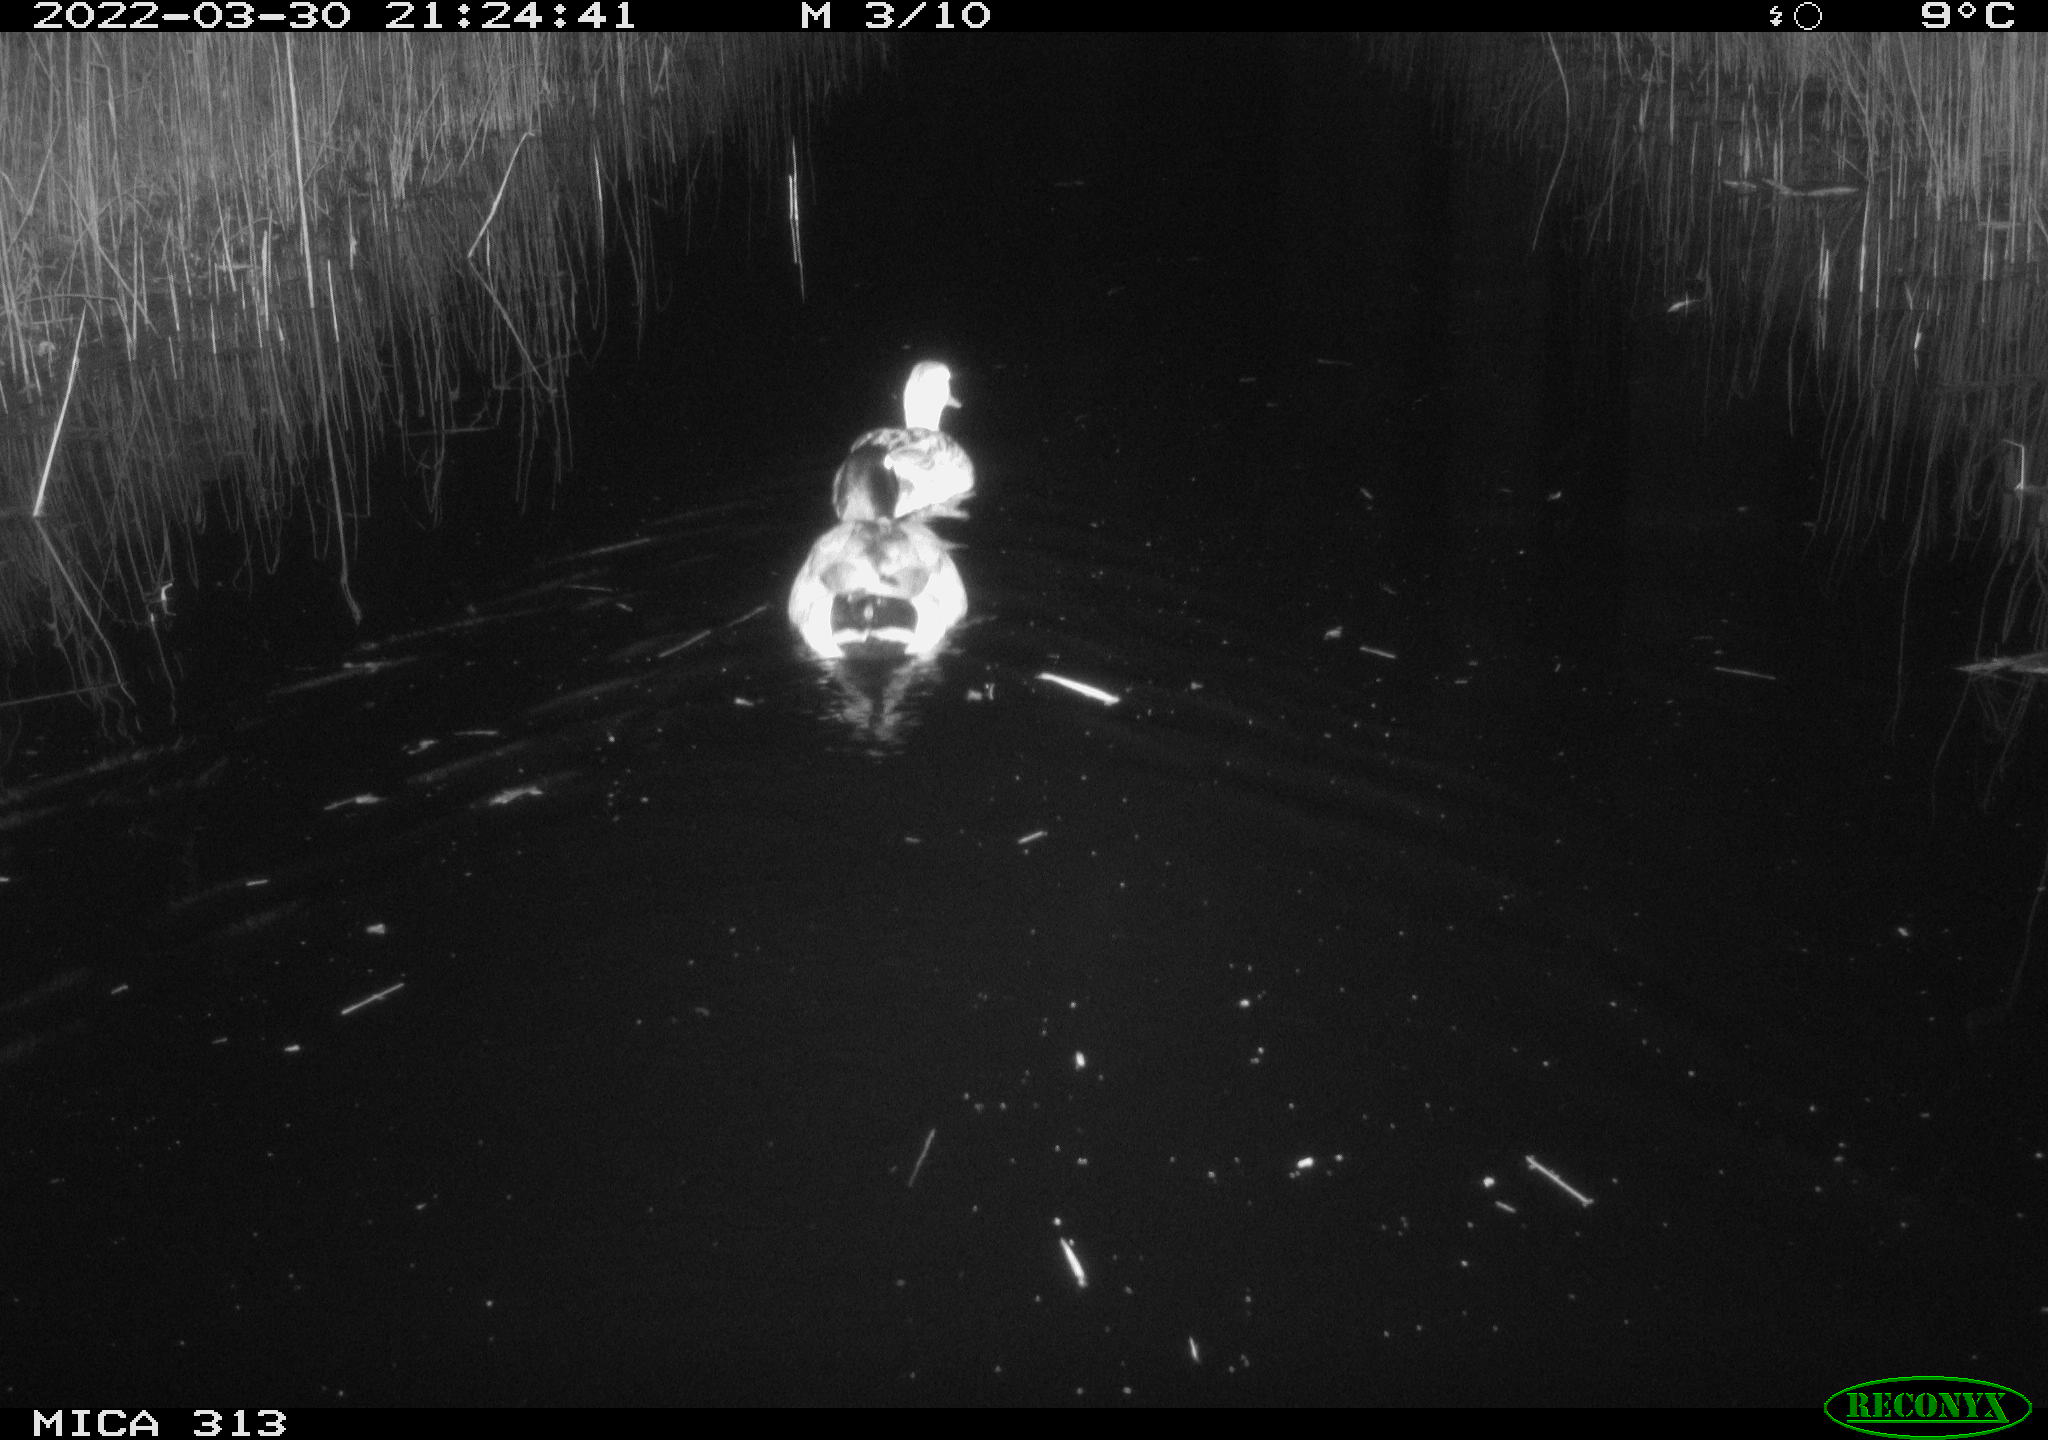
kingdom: Animalia
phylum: Chordata
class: Aves
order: Anseriformes
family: Anatidae
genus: Anas
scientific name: Anas platyrhynchos
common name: Mallard
